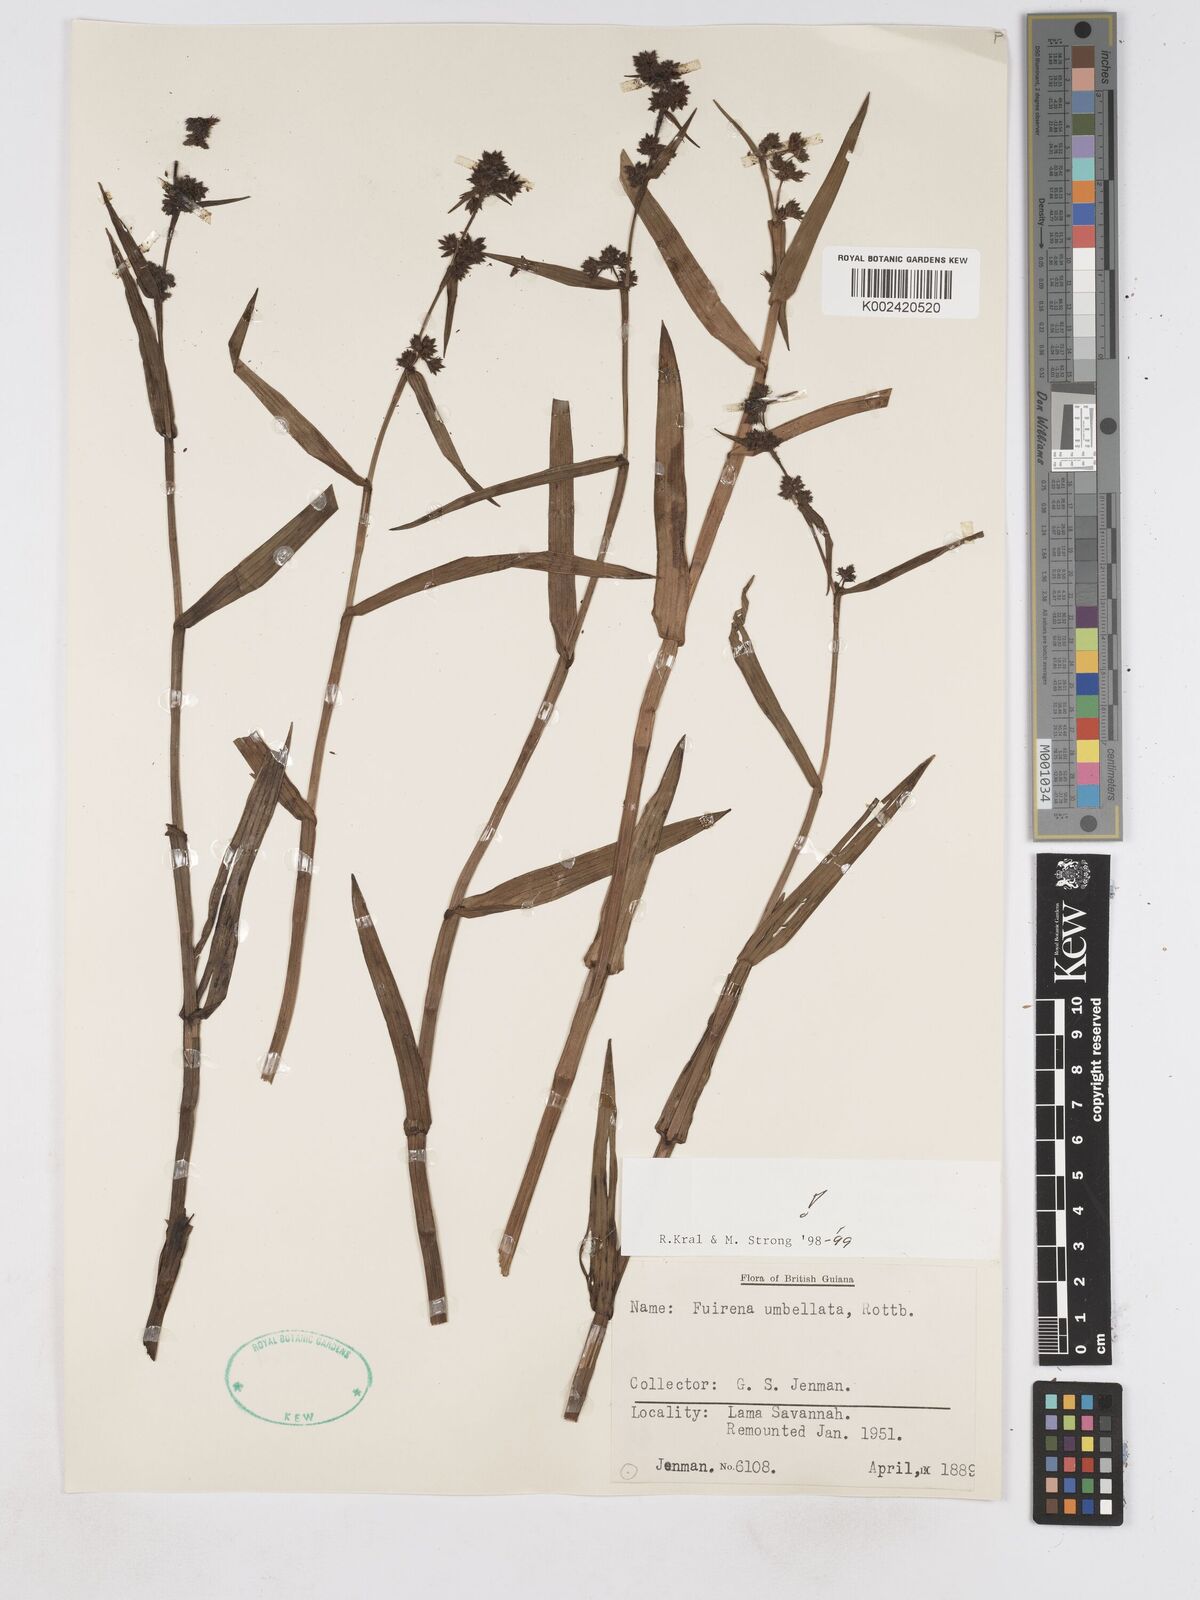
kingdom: Plantae
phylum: Tracheophyta
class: Liliopsida
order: Poales
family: Cyperaceae
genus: Fuirena
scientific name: Fuirena umbellata
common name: Yefen
